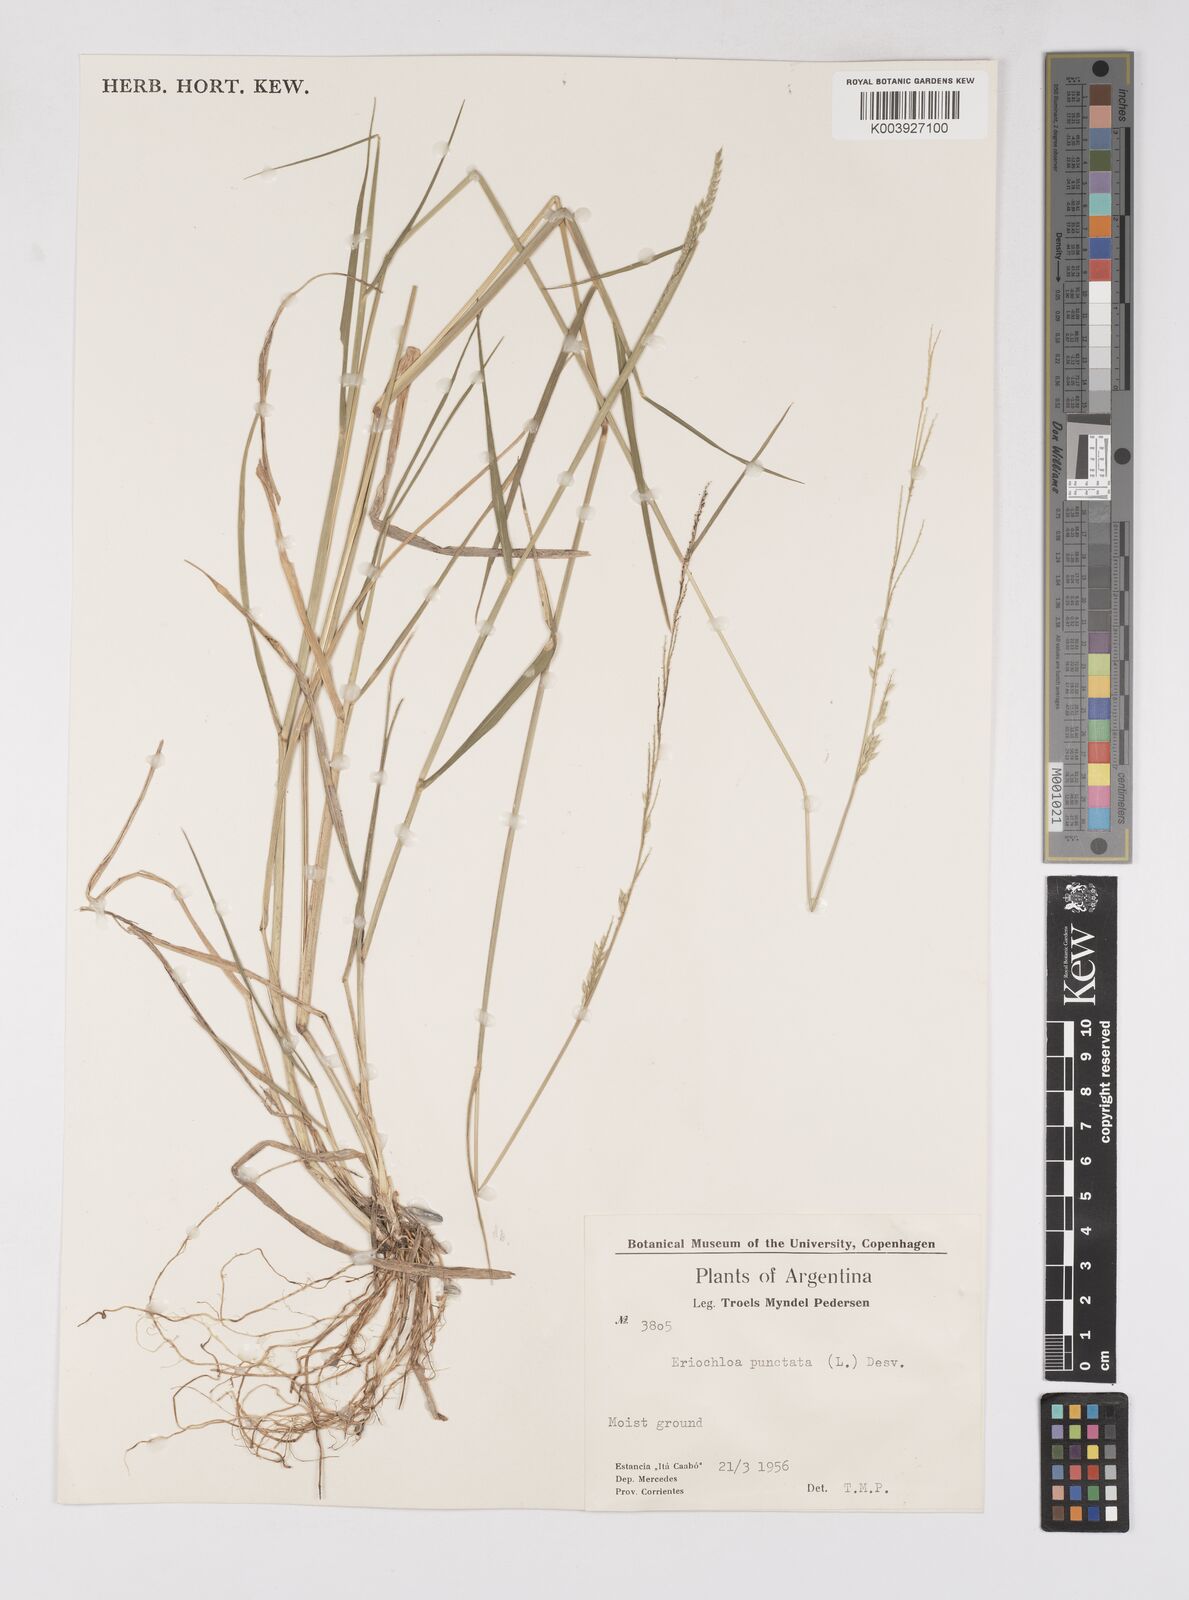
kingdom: Plantae
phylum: Tracheophyta
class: Liliopsida
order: Poales
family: Poaceae
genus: Eriochloa
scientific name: Eriochloa punctata
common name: Louisiana cupgrass
